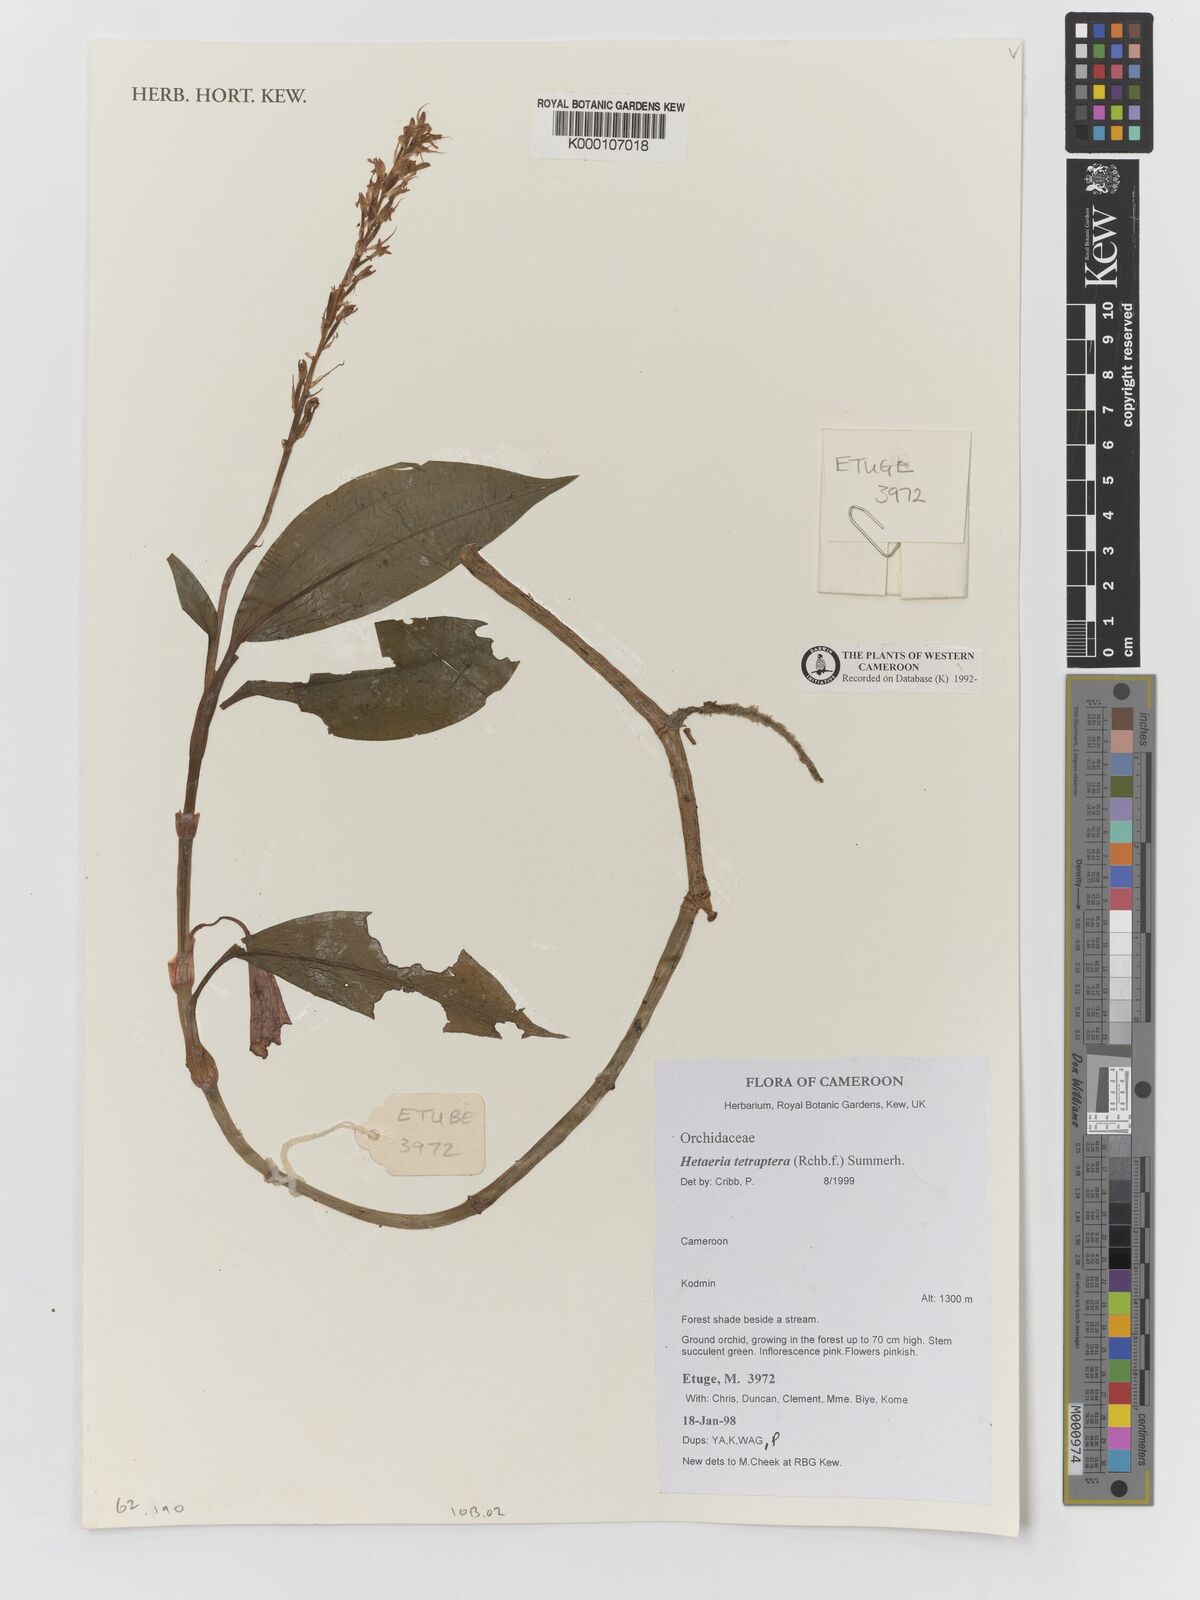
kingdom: Plantae
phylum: Tracheophyta
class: Liliopsida
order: Asparagales
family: Orchidaceae
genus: Hetaeria
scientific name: Hetaeria tetraptera
